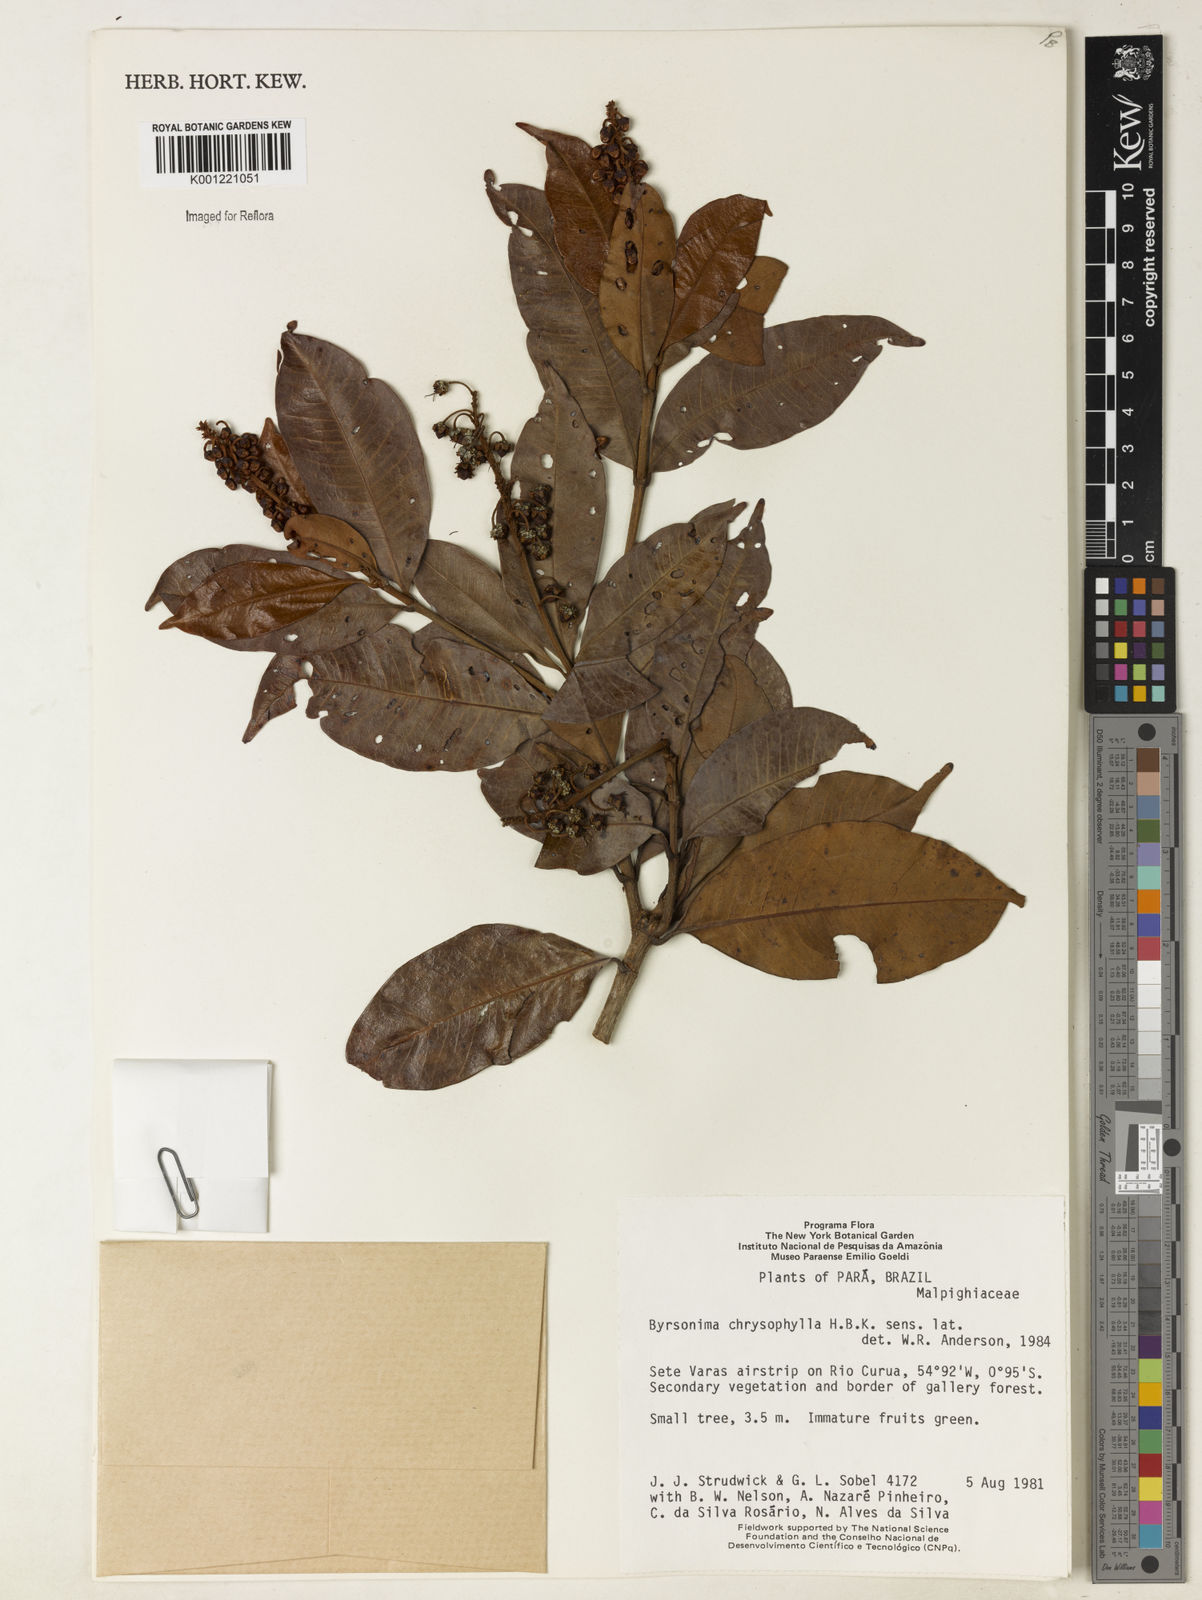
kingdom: Plantae
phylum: Tracheophyta
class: Magnoliopsida
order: Malpighiales
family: Malpighiaceae
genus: Byrsonima
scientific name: Byrsonima chrysophylla
